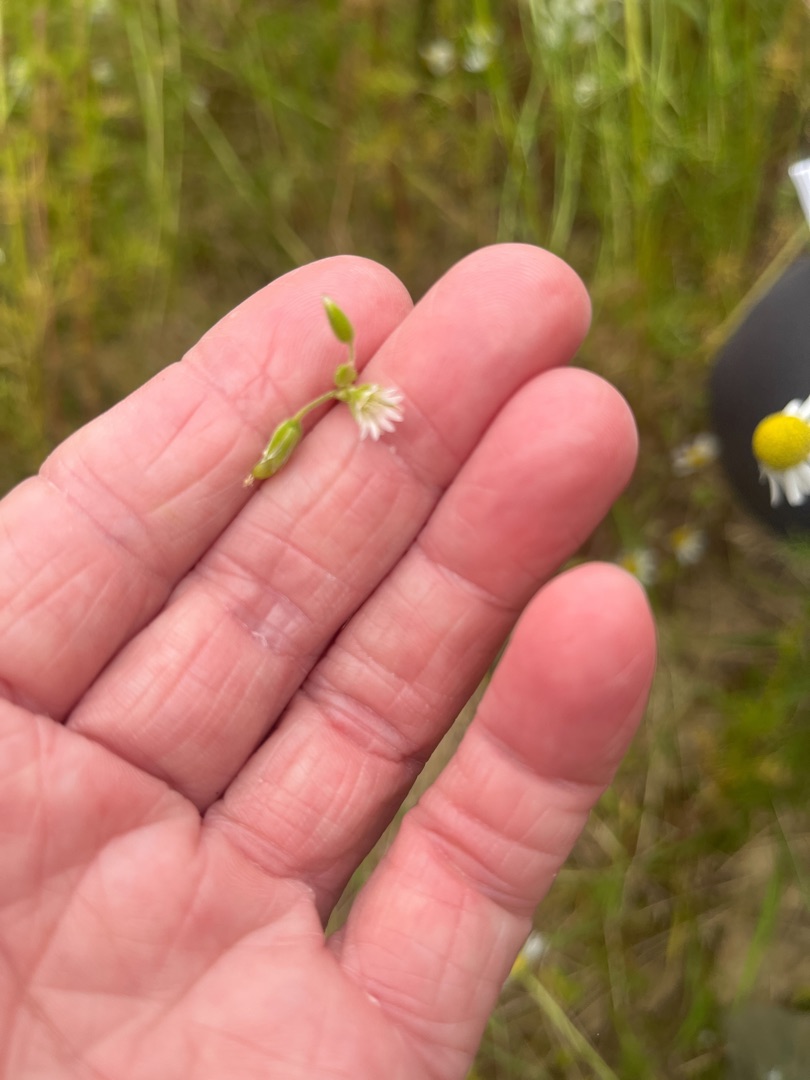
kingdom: Plantae
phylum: Tracheophyta
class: Magnoliopsida
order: Caryophyllales
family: Caryophyllaceae
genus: Cerastium
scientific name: Cerastium fontanum
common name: Almindelig hønsetarm
